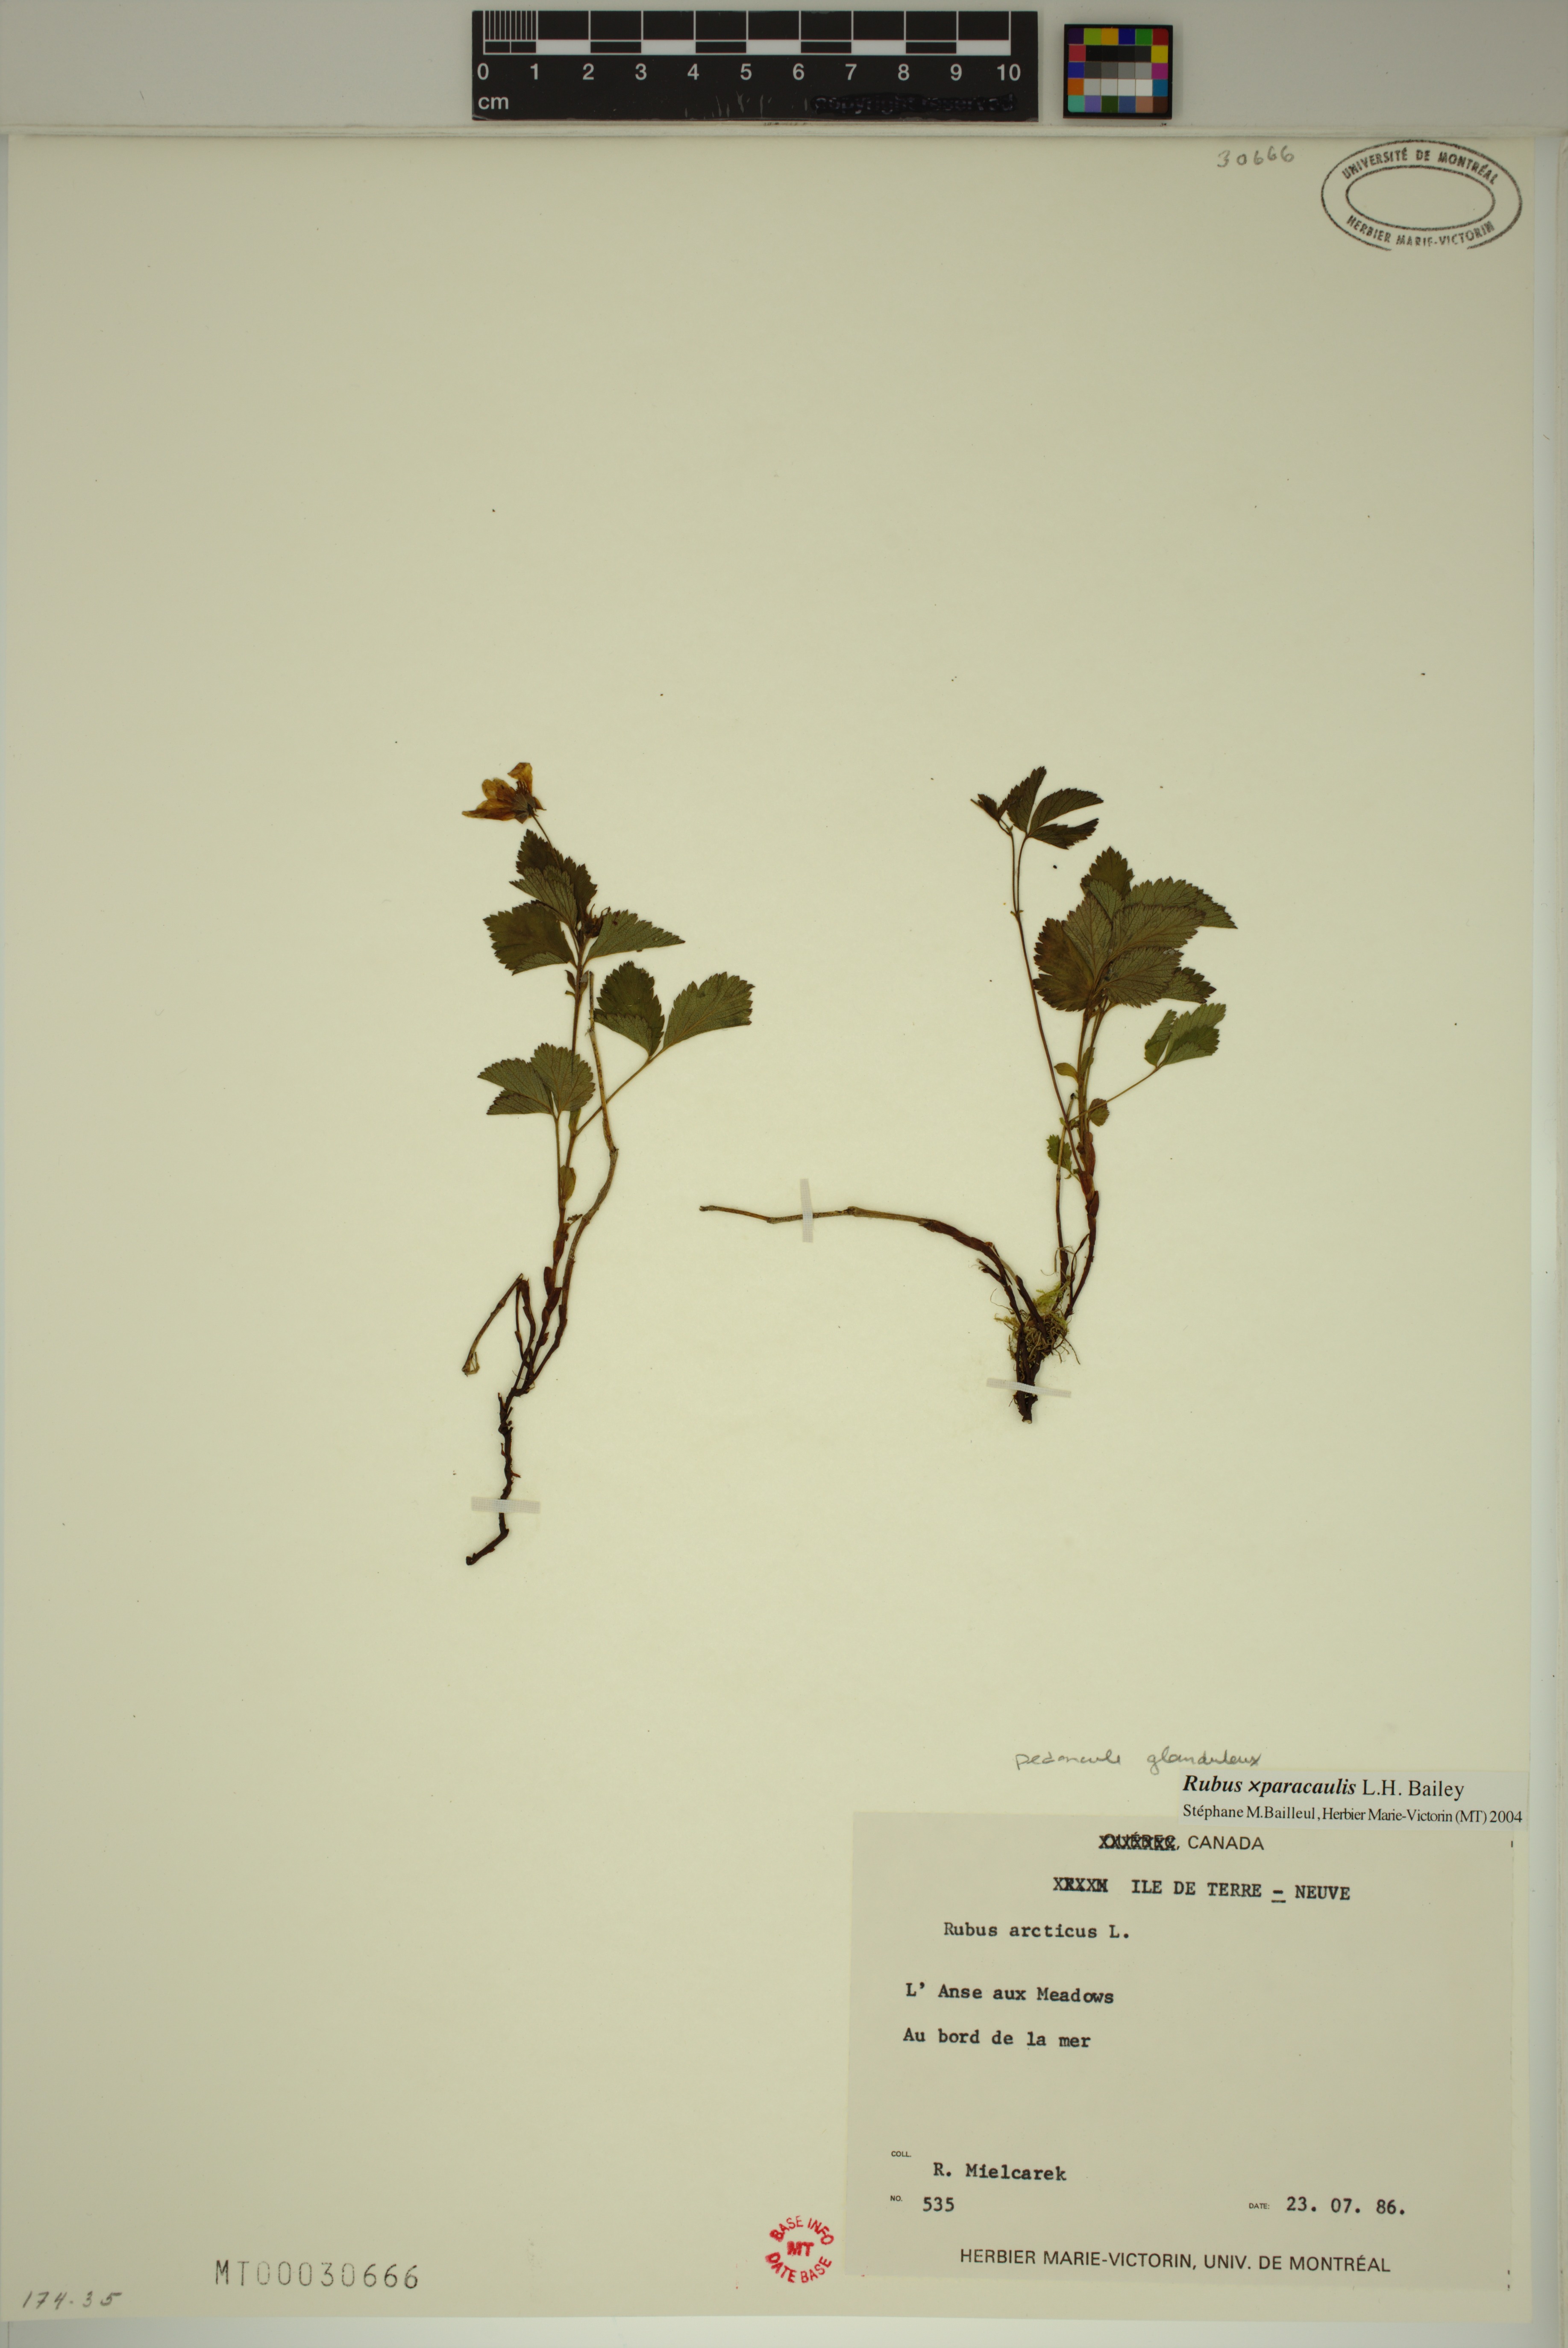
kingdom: Plantae
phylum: Tracheophyta
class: Magnoliopsida
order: Rosales
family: Rosaceae
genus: Rubus
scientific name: Rubus paracaulis
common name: Dwarf white-flowered raspberry
